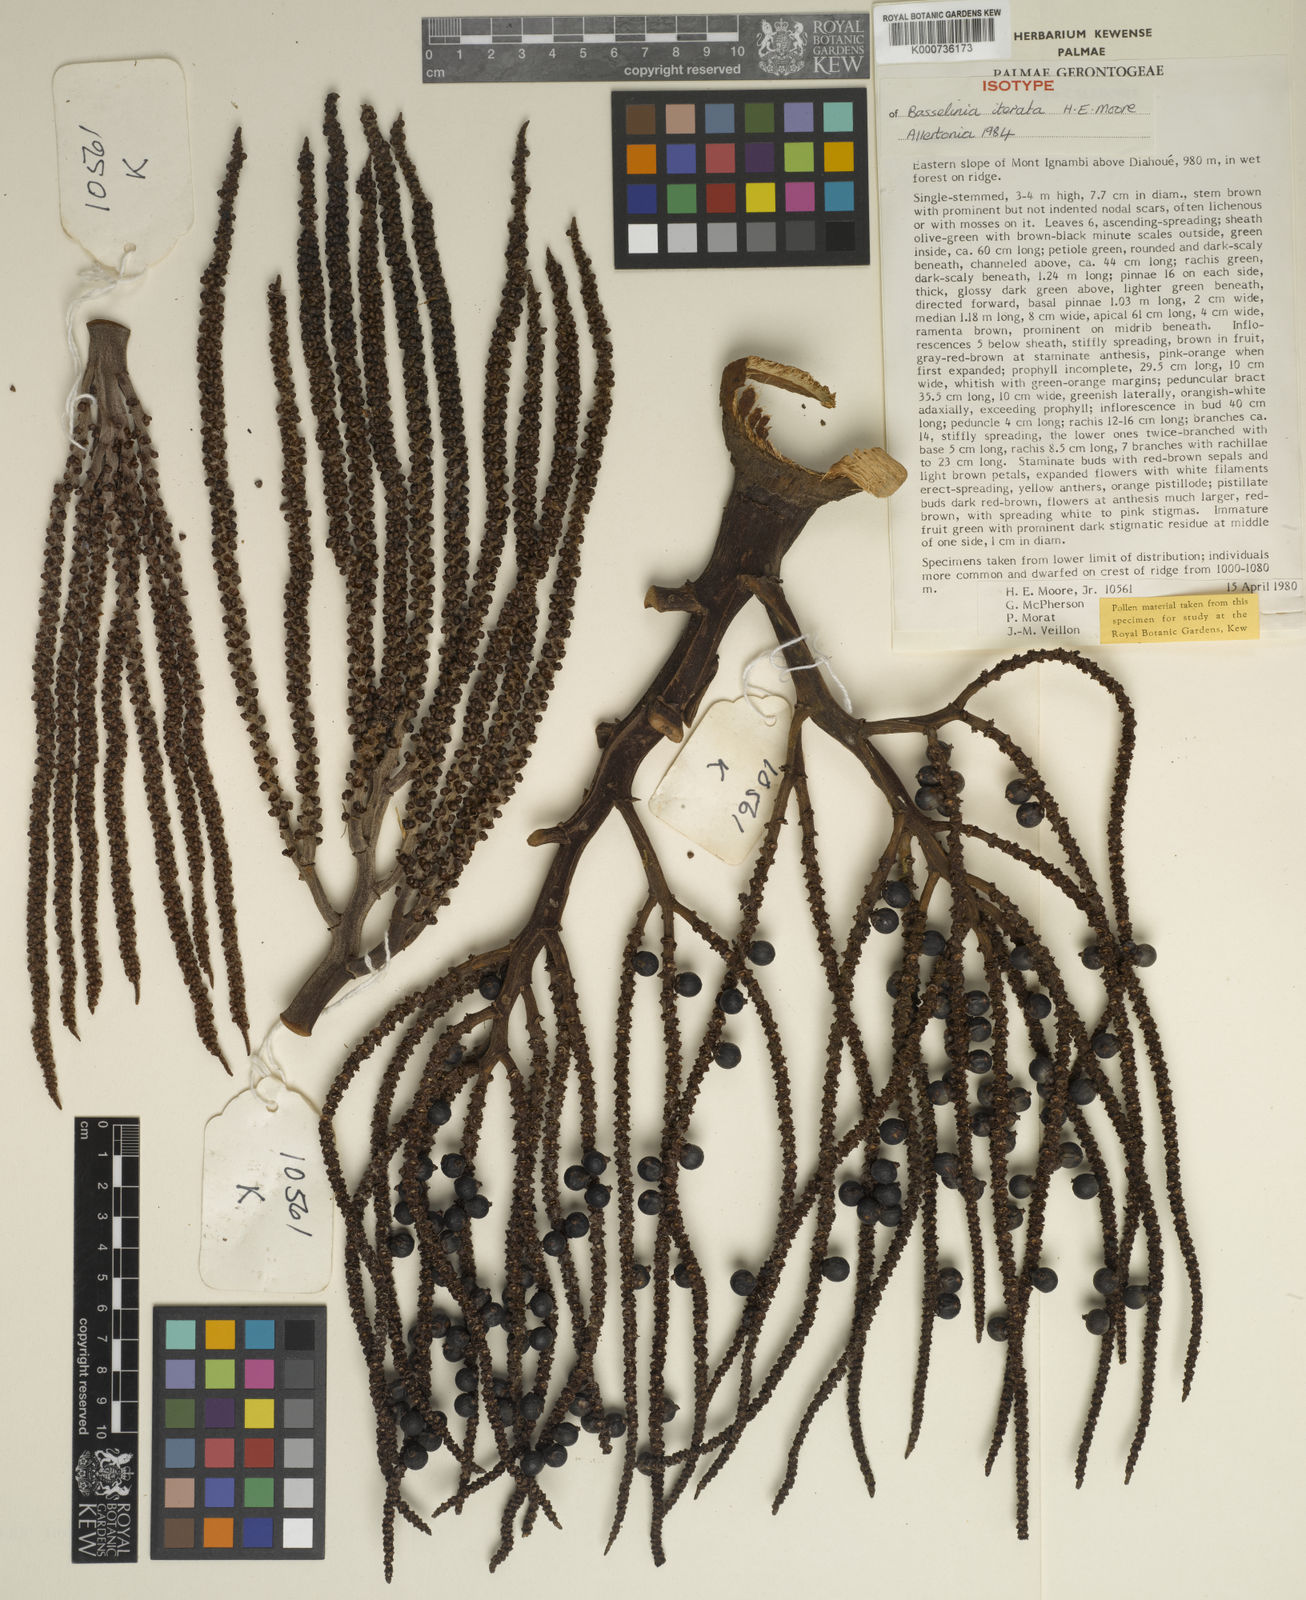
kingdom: Plantae
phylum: Tracheophyta
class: Liliopsida
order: Arecales
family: Arecaceae
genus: Basselinia
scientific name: Basselinia iterata
